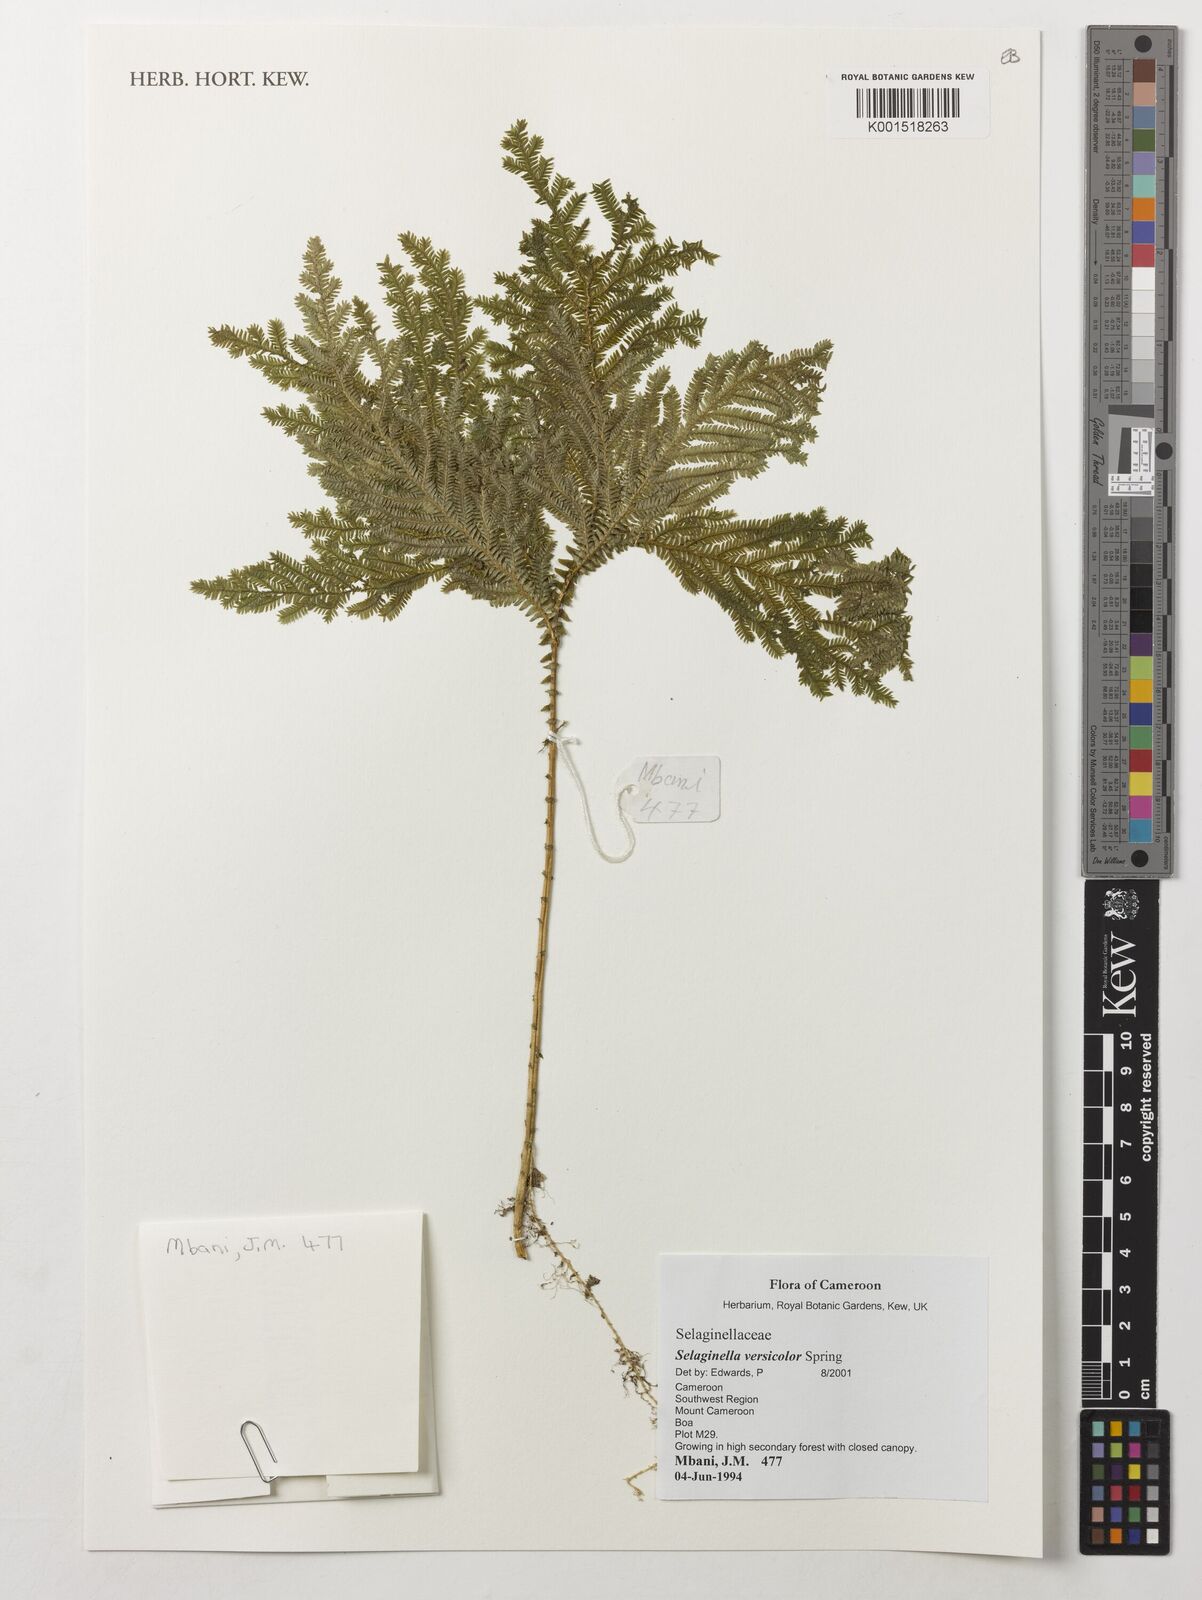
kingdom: Plantae
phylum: Tracheophyta
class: Lycopodiopsida
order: Selaginellales
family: Selaginellaceae
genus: Selaginella
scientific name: Selaginella versicolor
